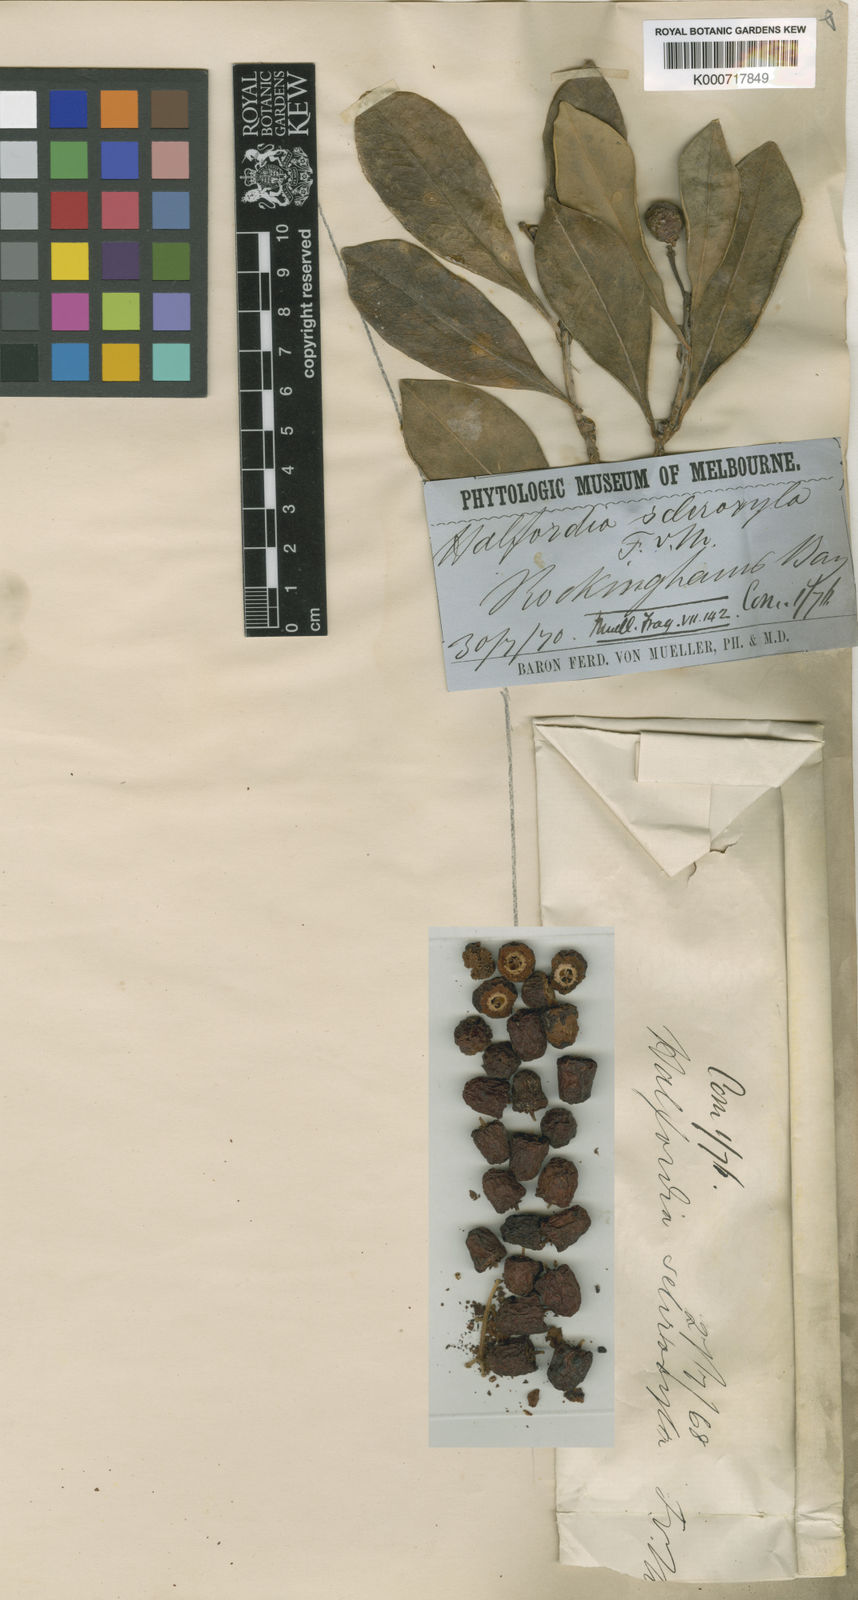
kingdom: Plantae
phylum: Tracheophyta
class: Magnoliopsida
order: Sapindales
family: Rutaceae
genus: Halfordia
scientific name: Halfordia kendack
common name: Southern ghittoe
